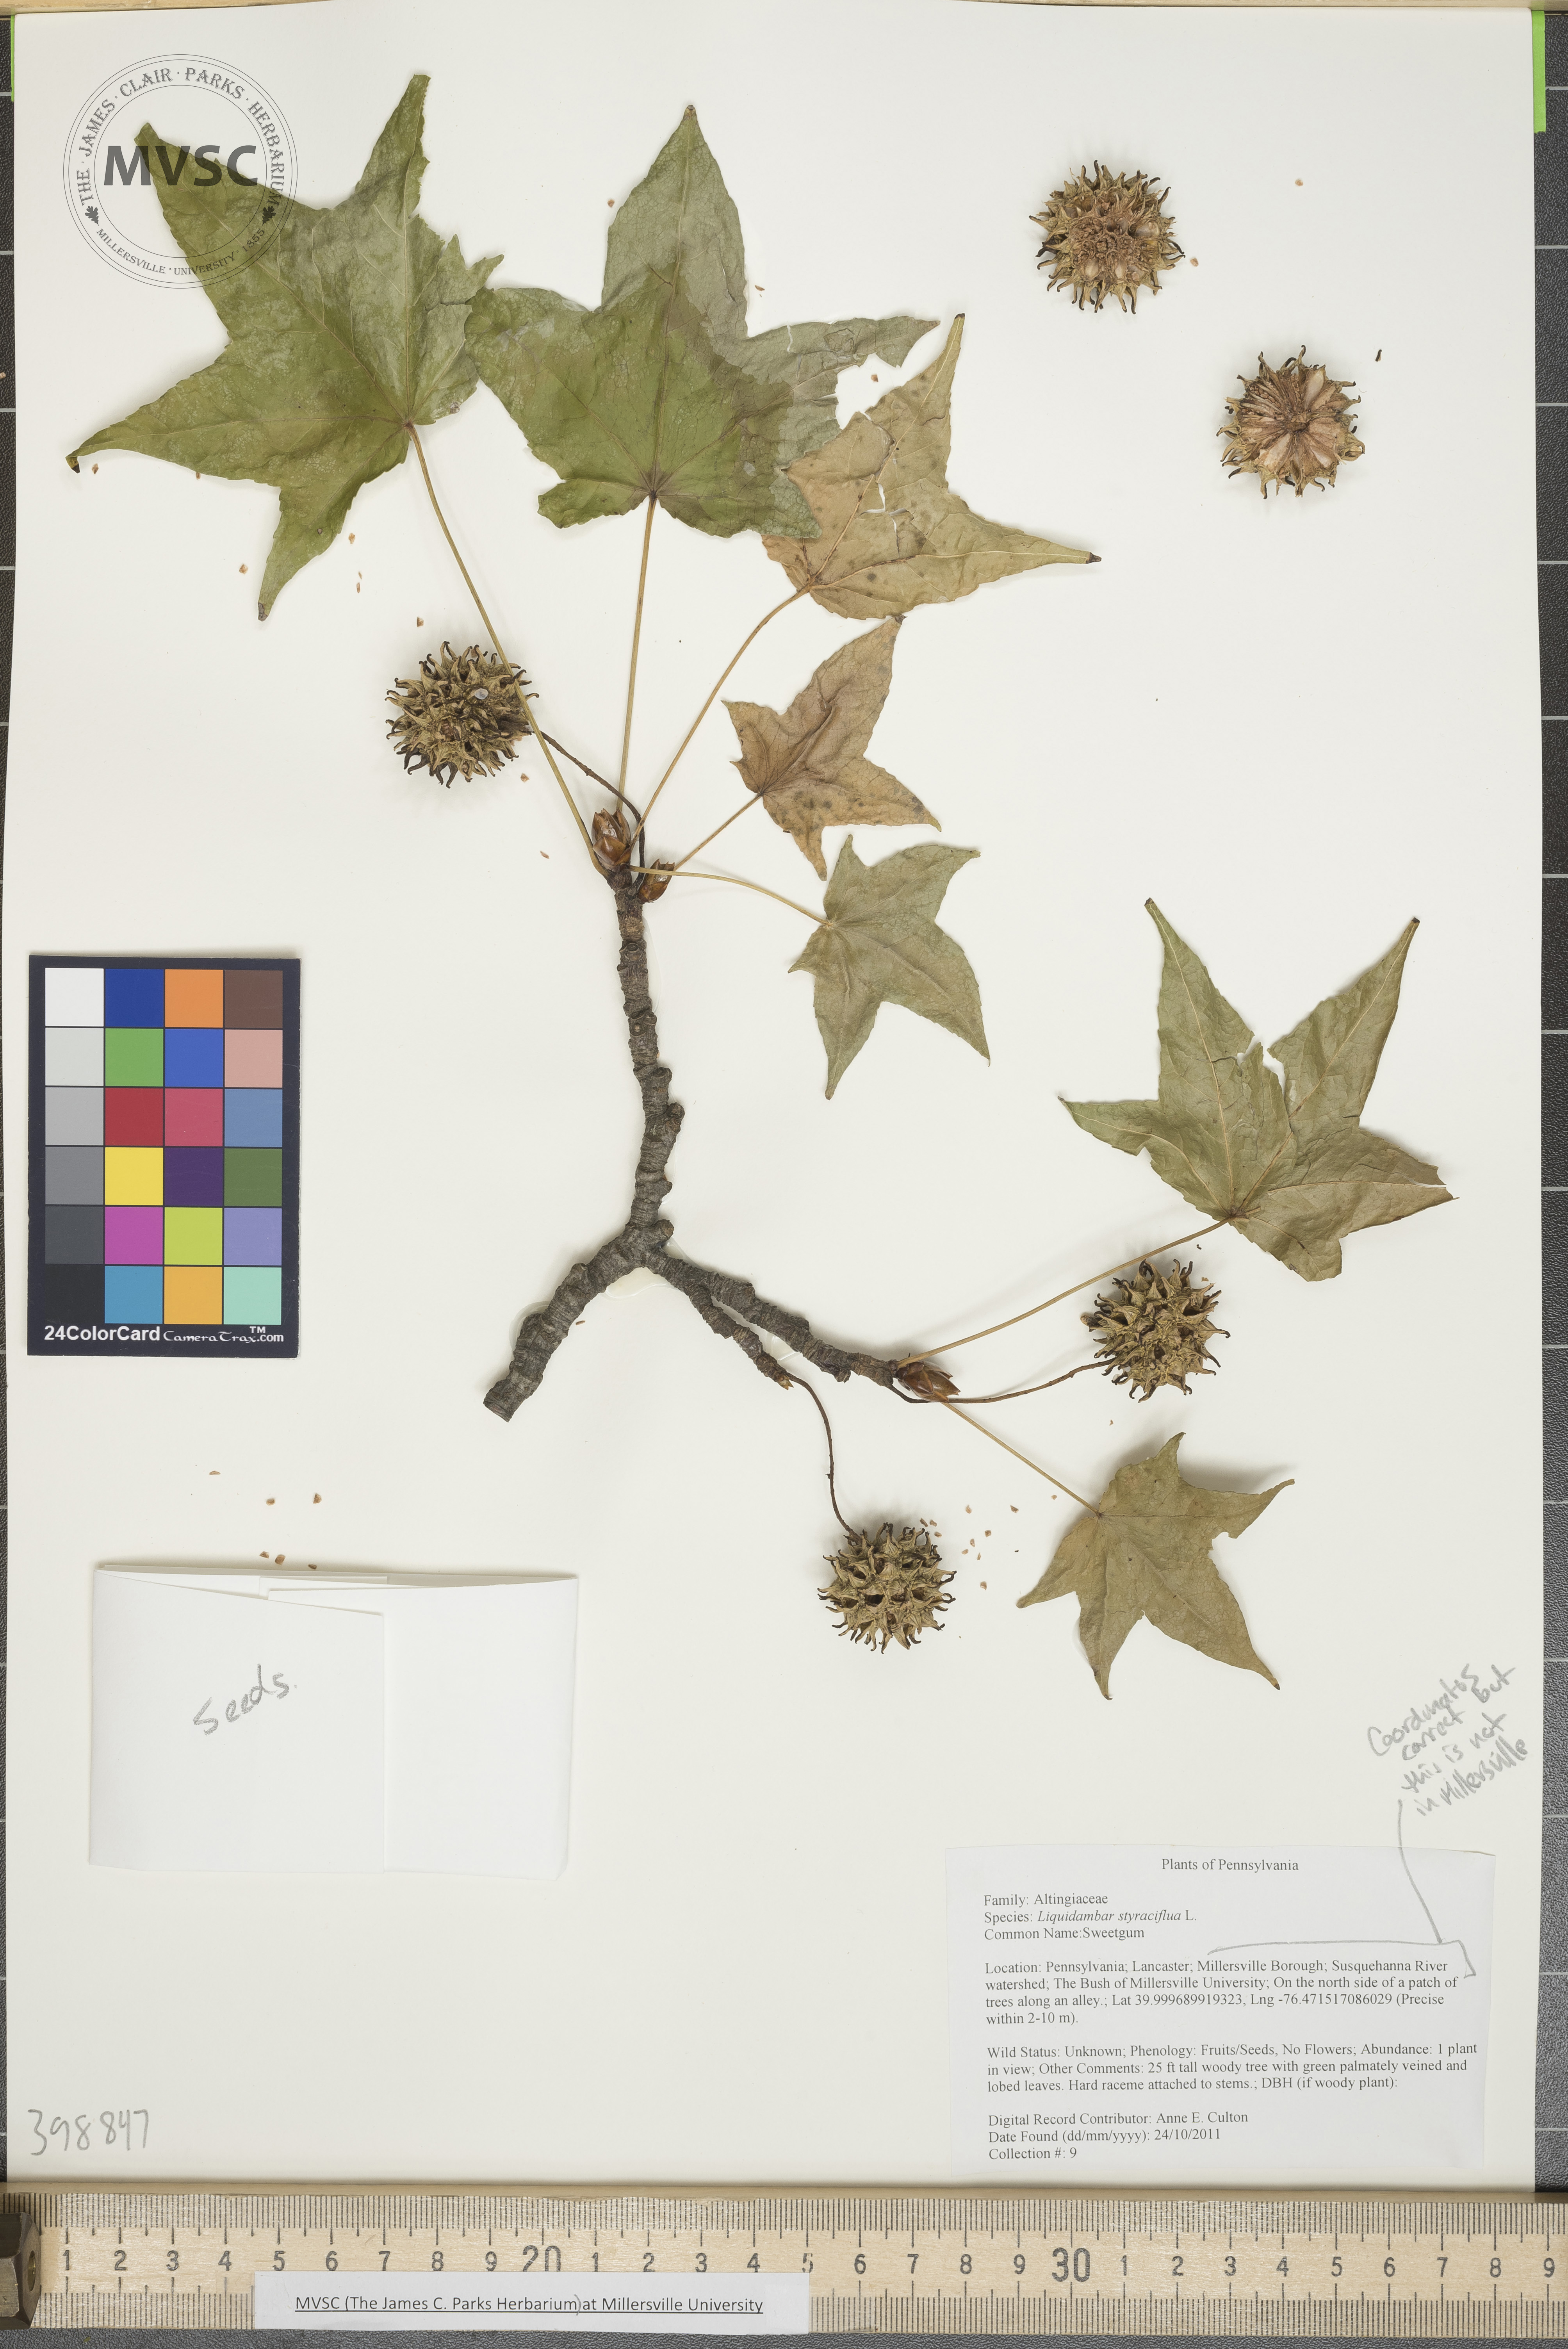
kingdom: Plantae
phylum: Tracheophyta
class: Magnoliopsida
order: Saxifragales
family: Altingiaceae
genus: Liquidambar
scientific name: Liquidambar styraciflua
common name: Sweetgum
